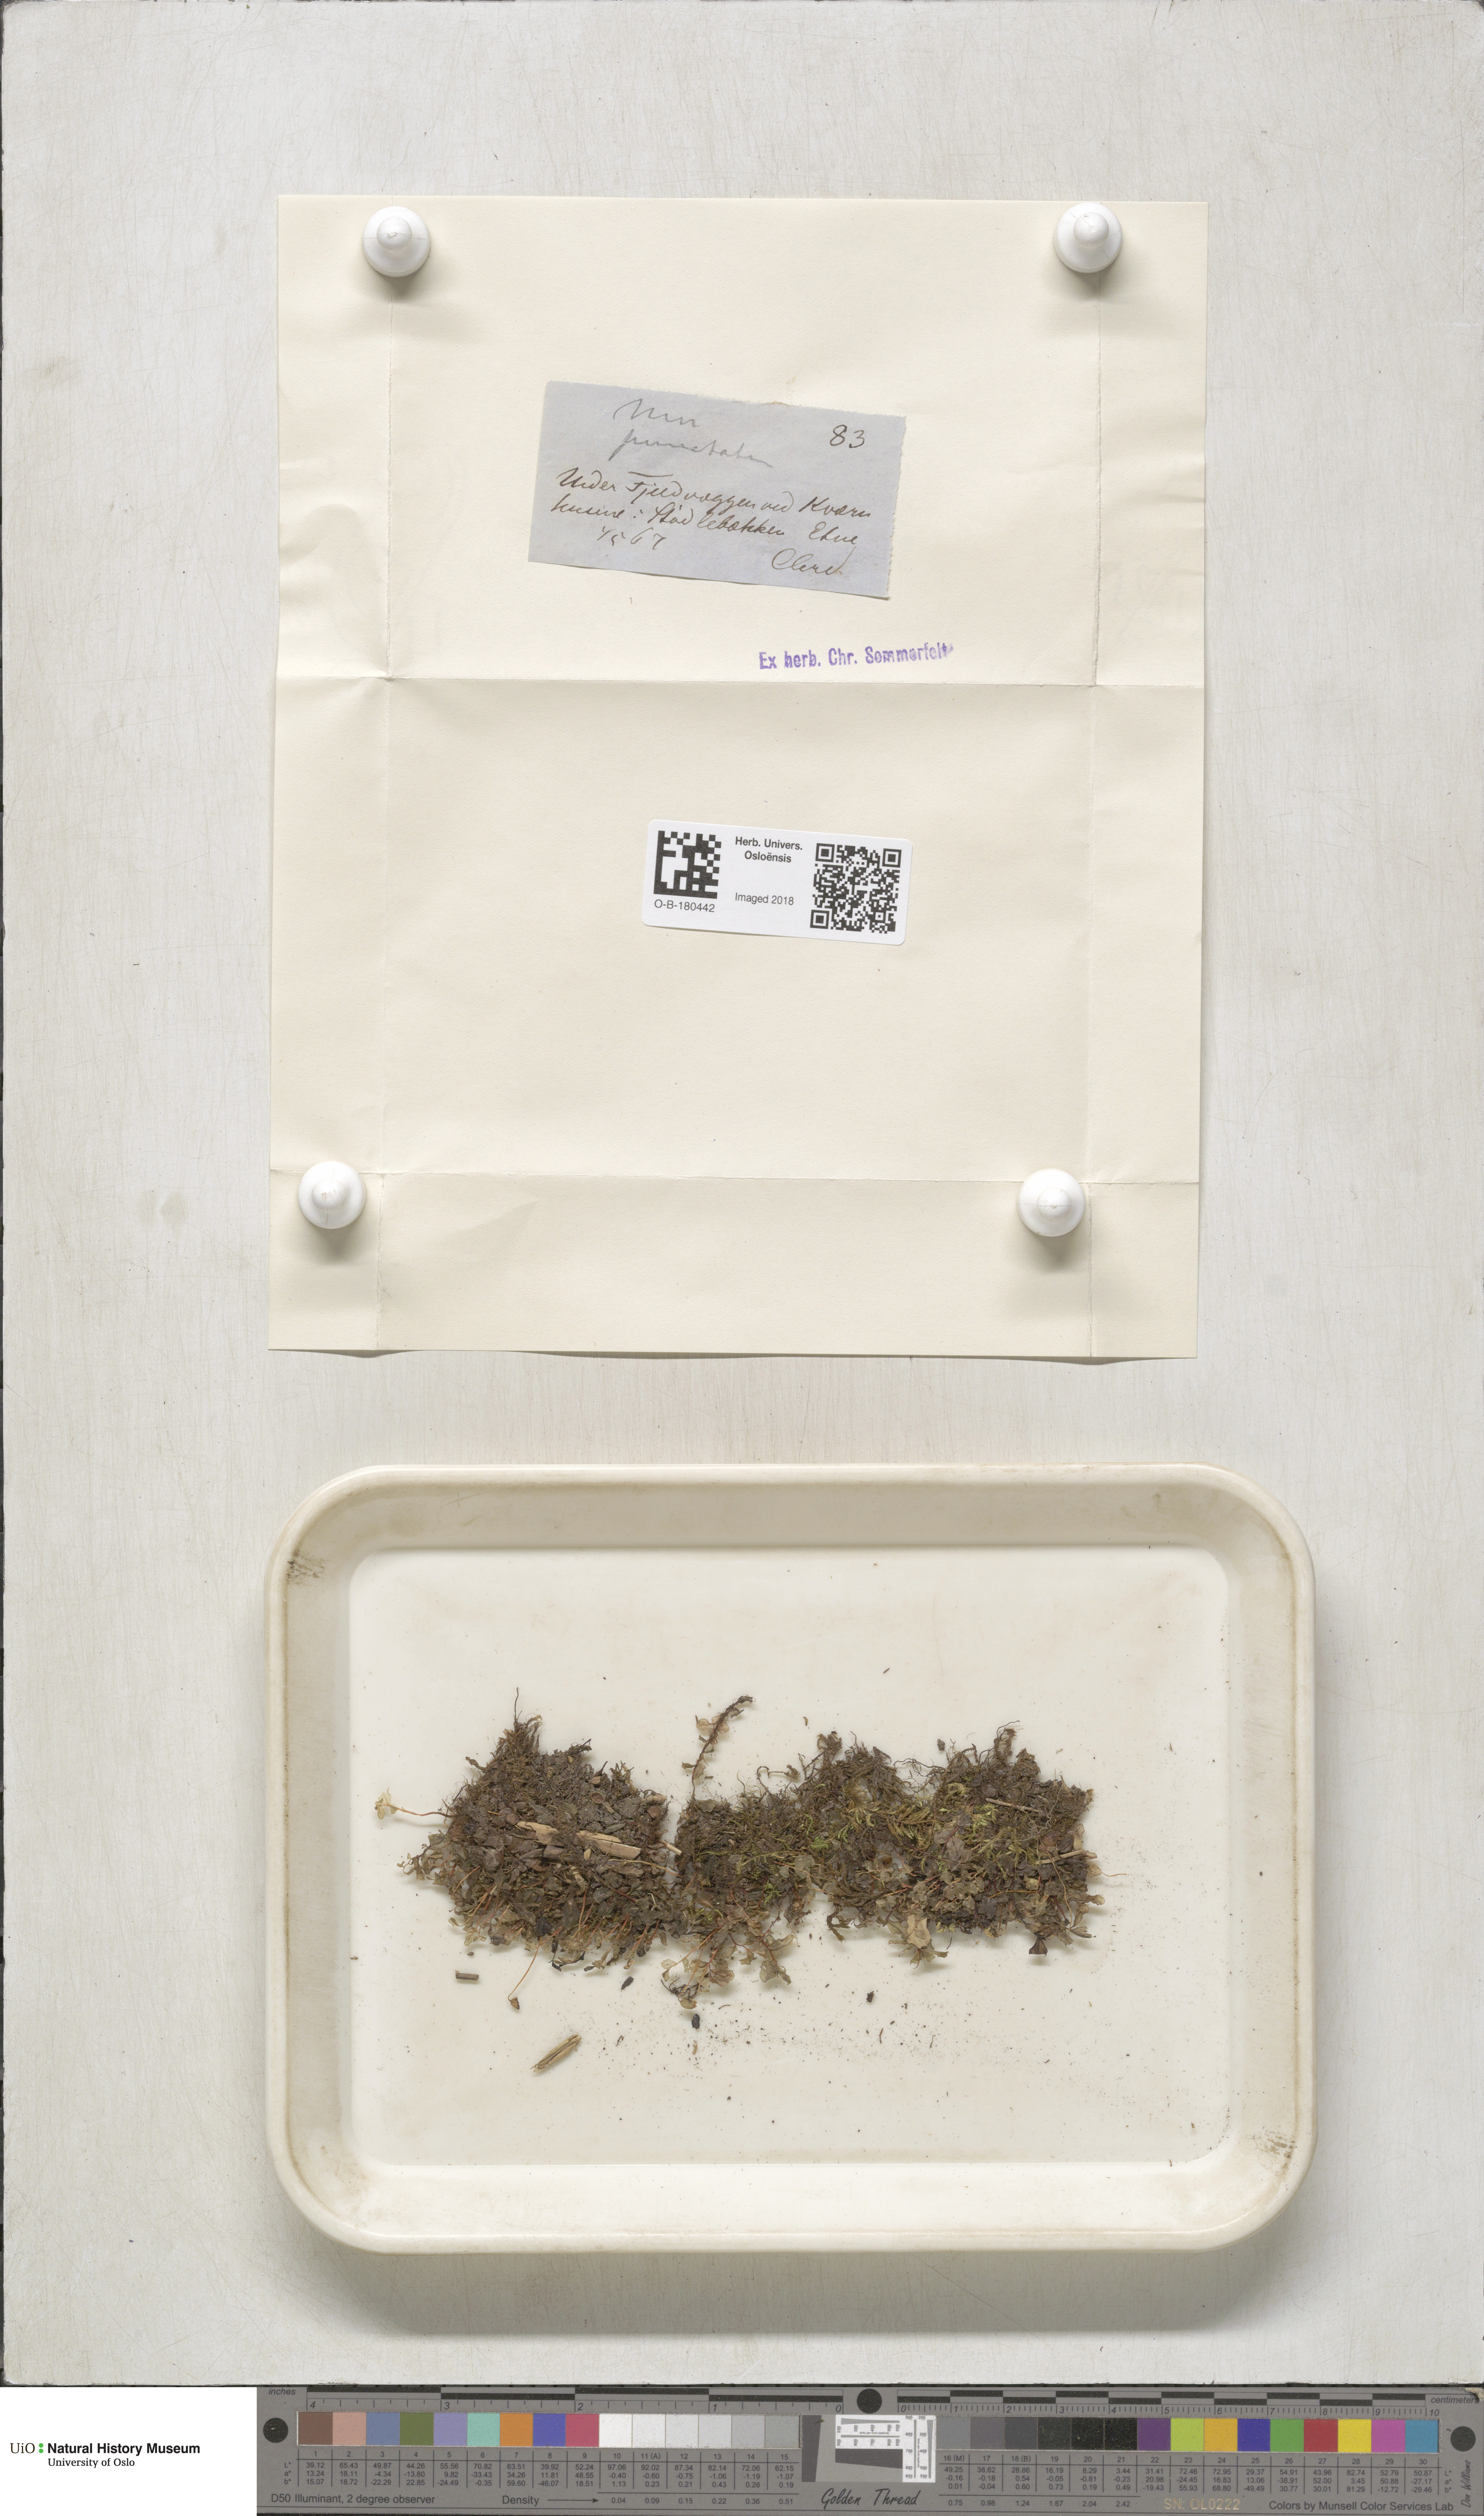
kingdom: Plantae
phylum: Bryophyta
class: Bryopsida
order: Bryales
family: Mniaceae
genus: Rhizomnium
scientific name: Rhizomnium punctatum
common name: Dotted leafy moss
